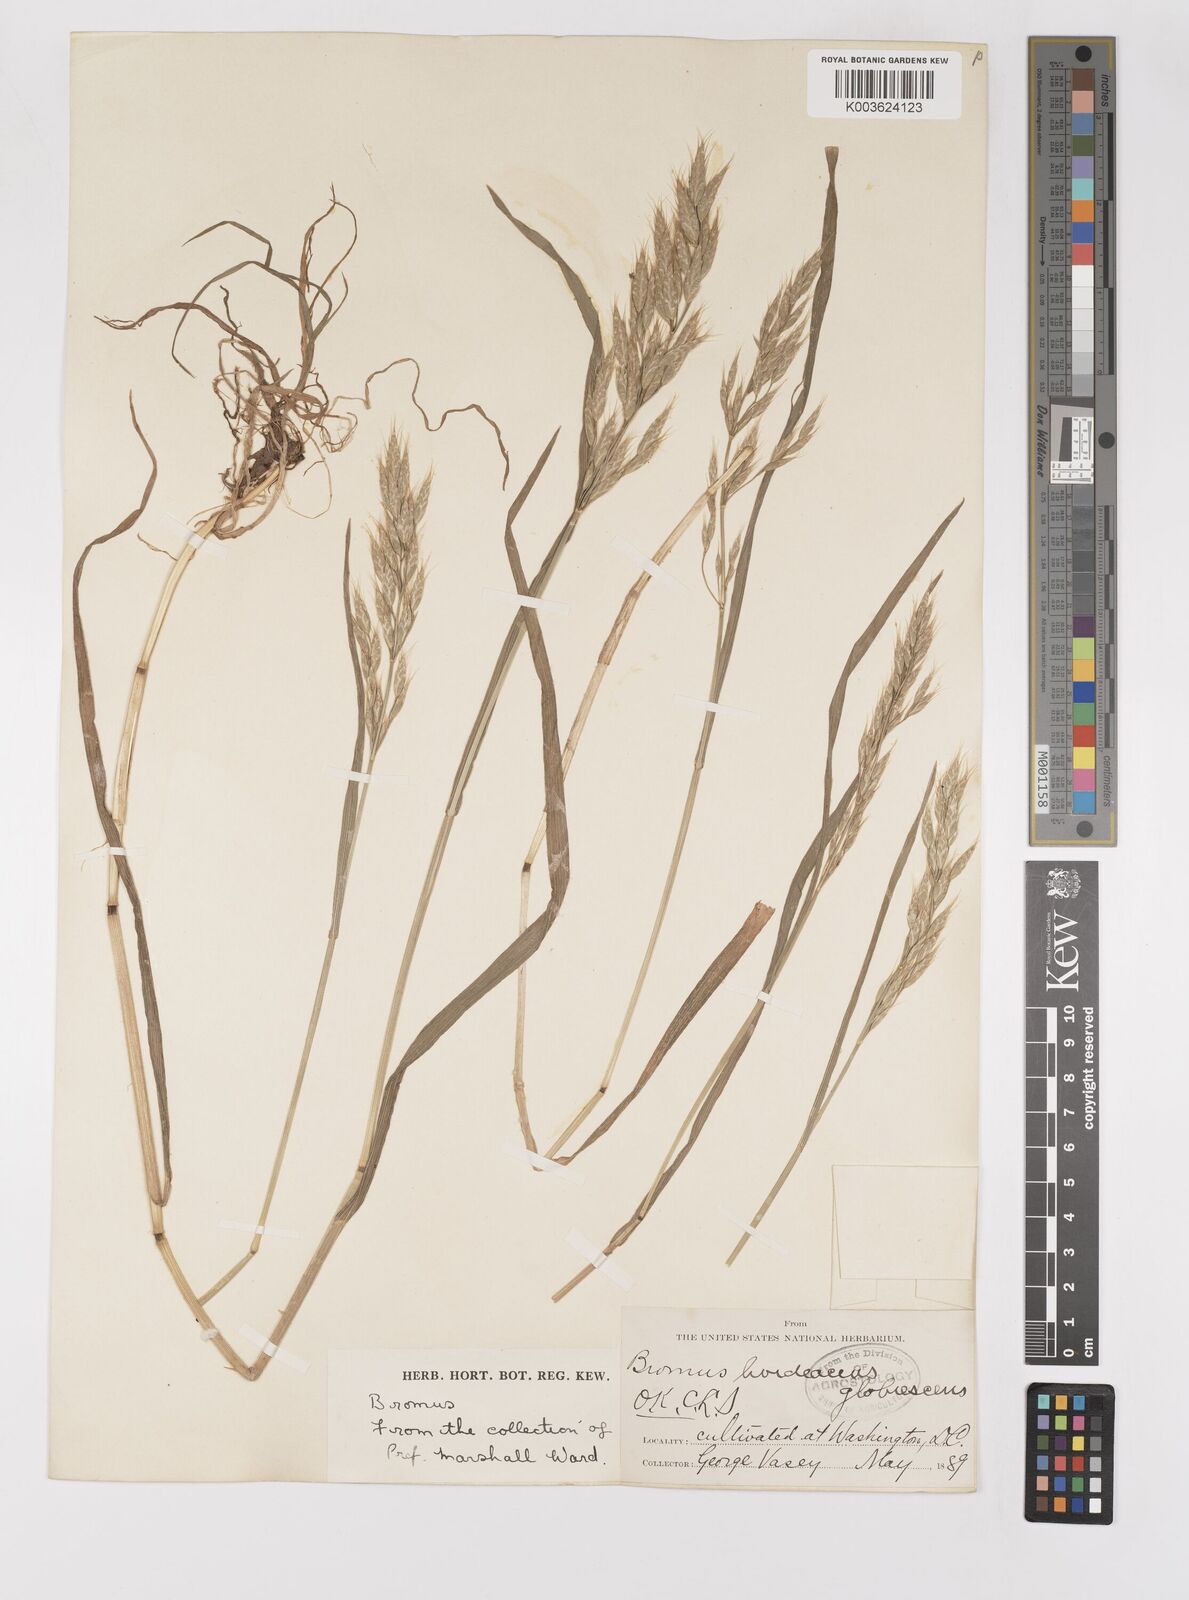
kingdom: Plantae
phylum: Tracheophyta
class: Liliopsida
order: Poales
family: Poaceae
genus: Bromus
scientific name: Bromus hordeaceus
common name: Soft brome
